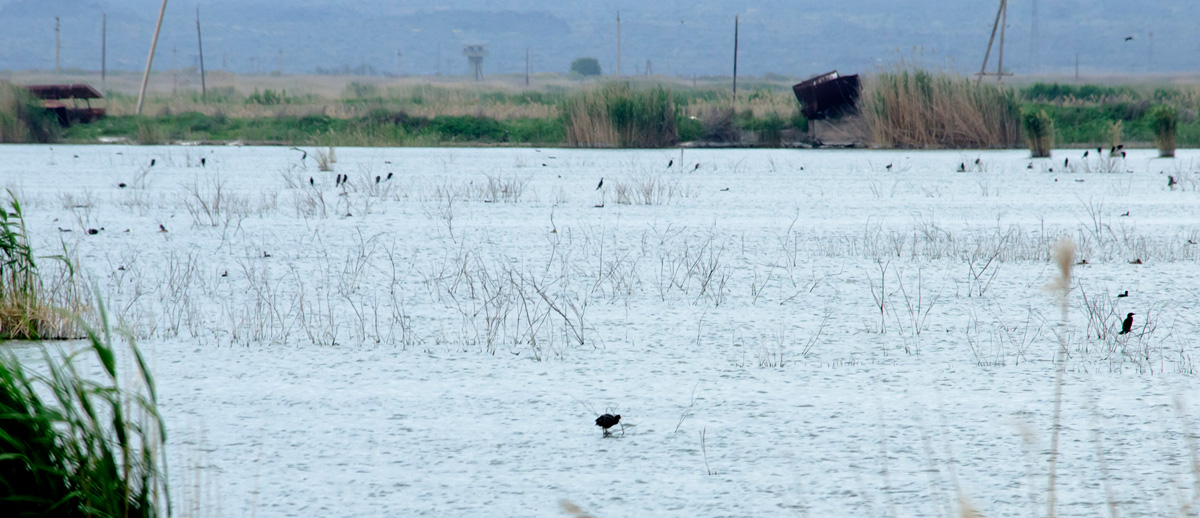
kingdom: Animalia
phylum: Chordata
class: Aves
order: Suliformes
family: Phalacrocoracidae
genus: Microcarbo
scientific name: Microcarbo pygmeus
